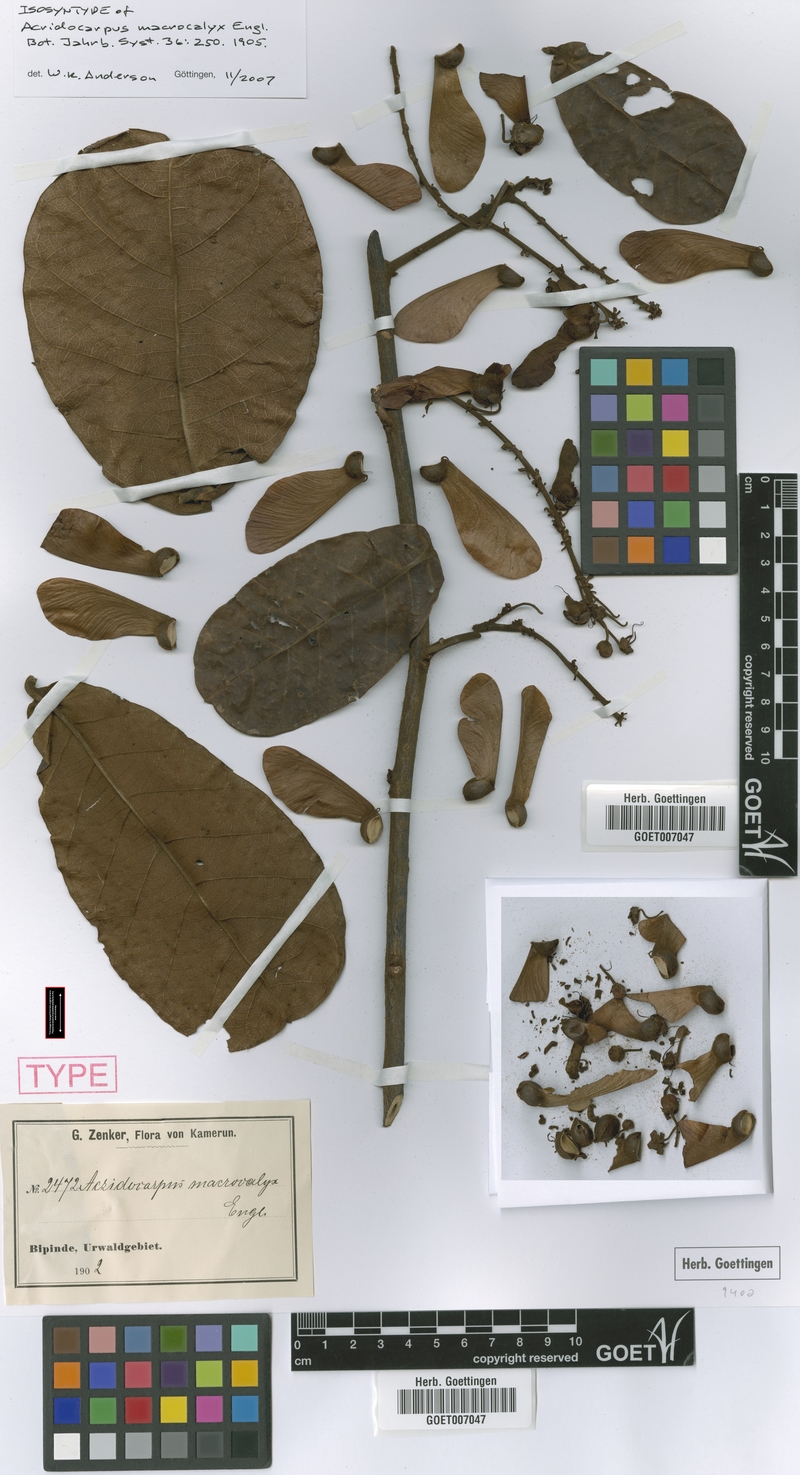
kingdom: Plantae
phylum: Tracheophyta
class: Magnoliopsida
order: Malpighiales
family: Malpighiaceae
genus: Acridocarpus
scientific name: Acridocarpus macrocalyx
